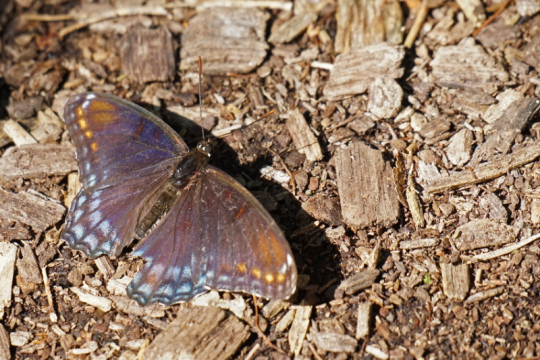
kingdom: Animalia
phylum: Arthropoda
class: Insecta
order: Lepidoptera
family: Nymphalidae
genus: Limenitis
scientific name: Limenitis arthemis
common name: Red-spotted Admiral
